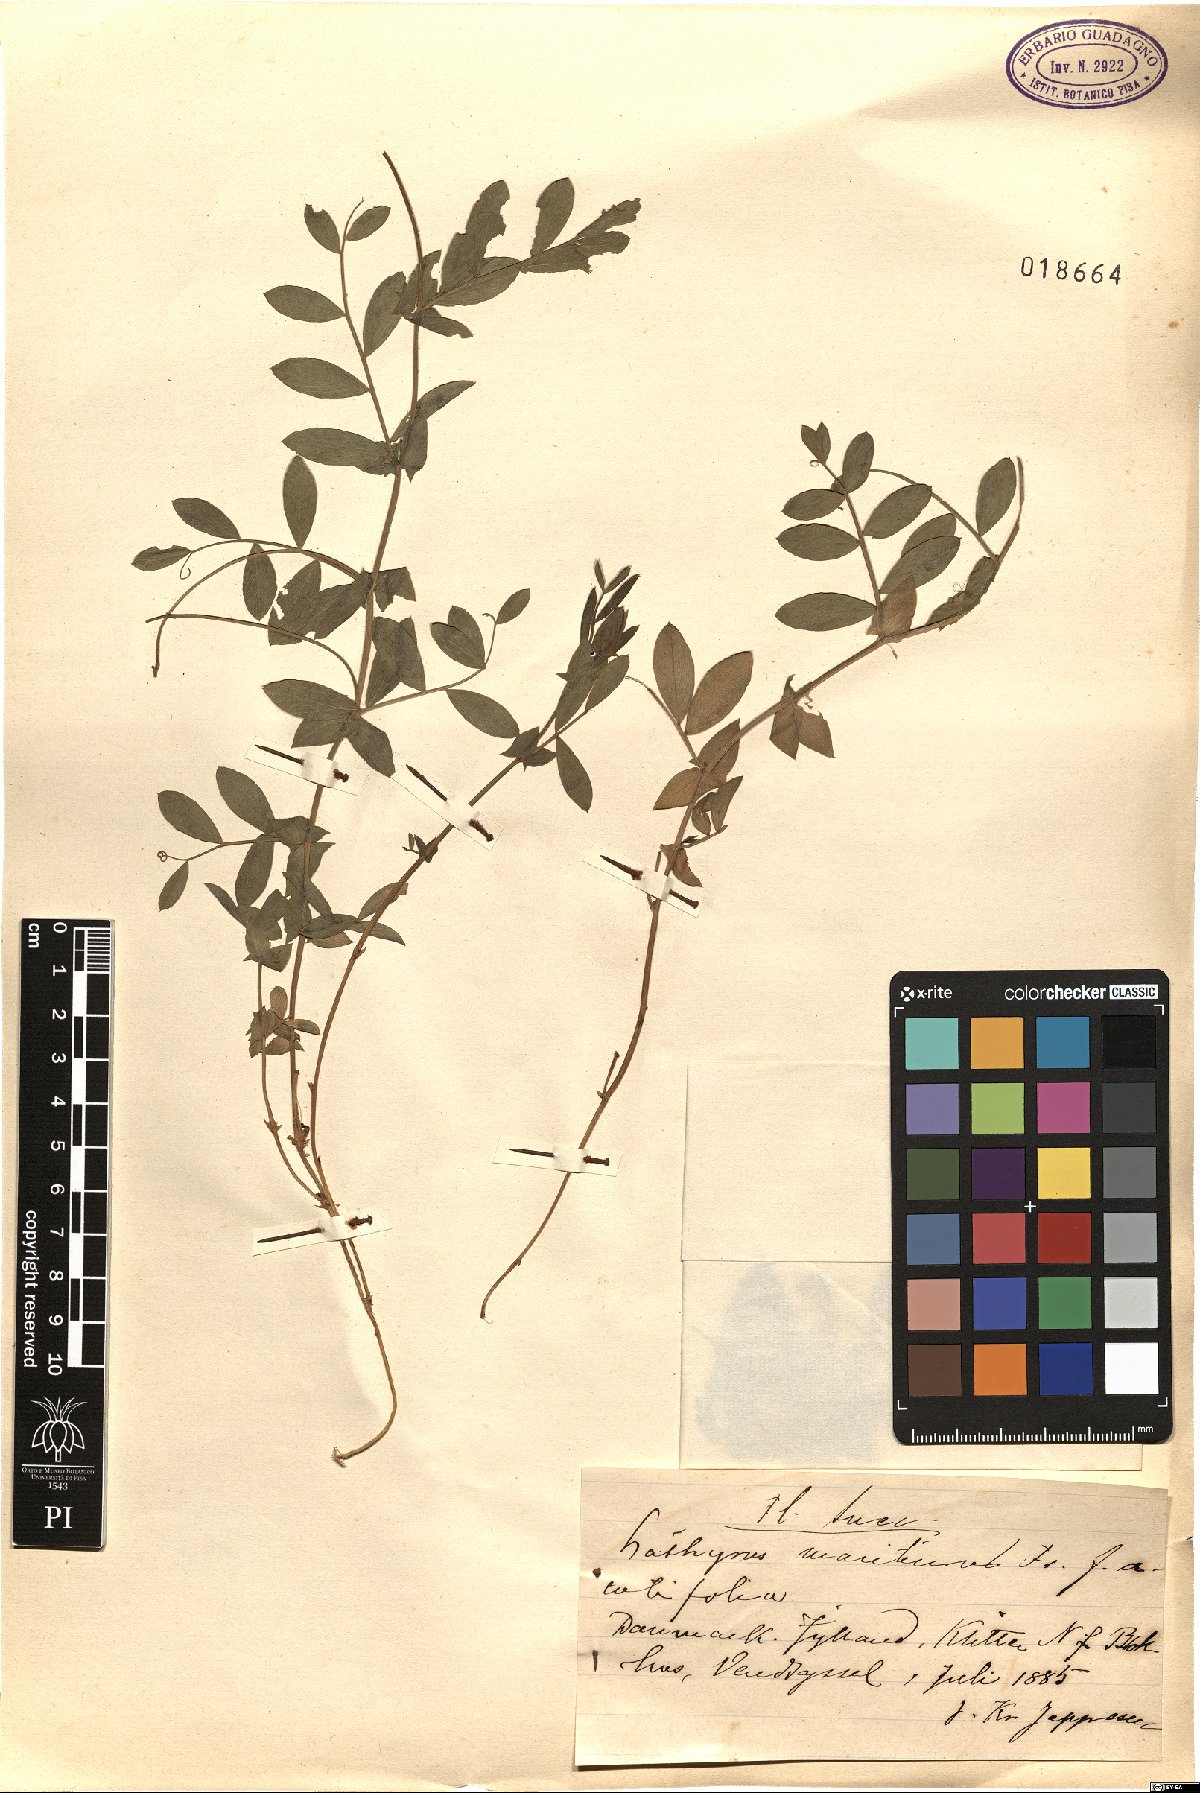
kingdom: Plantae
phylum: Tracheophyta
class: Magnoliopsida
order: Fabales
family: Fabaceae
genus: Lathyrus
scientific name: Lathyrus japonicus
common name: Sea pea
